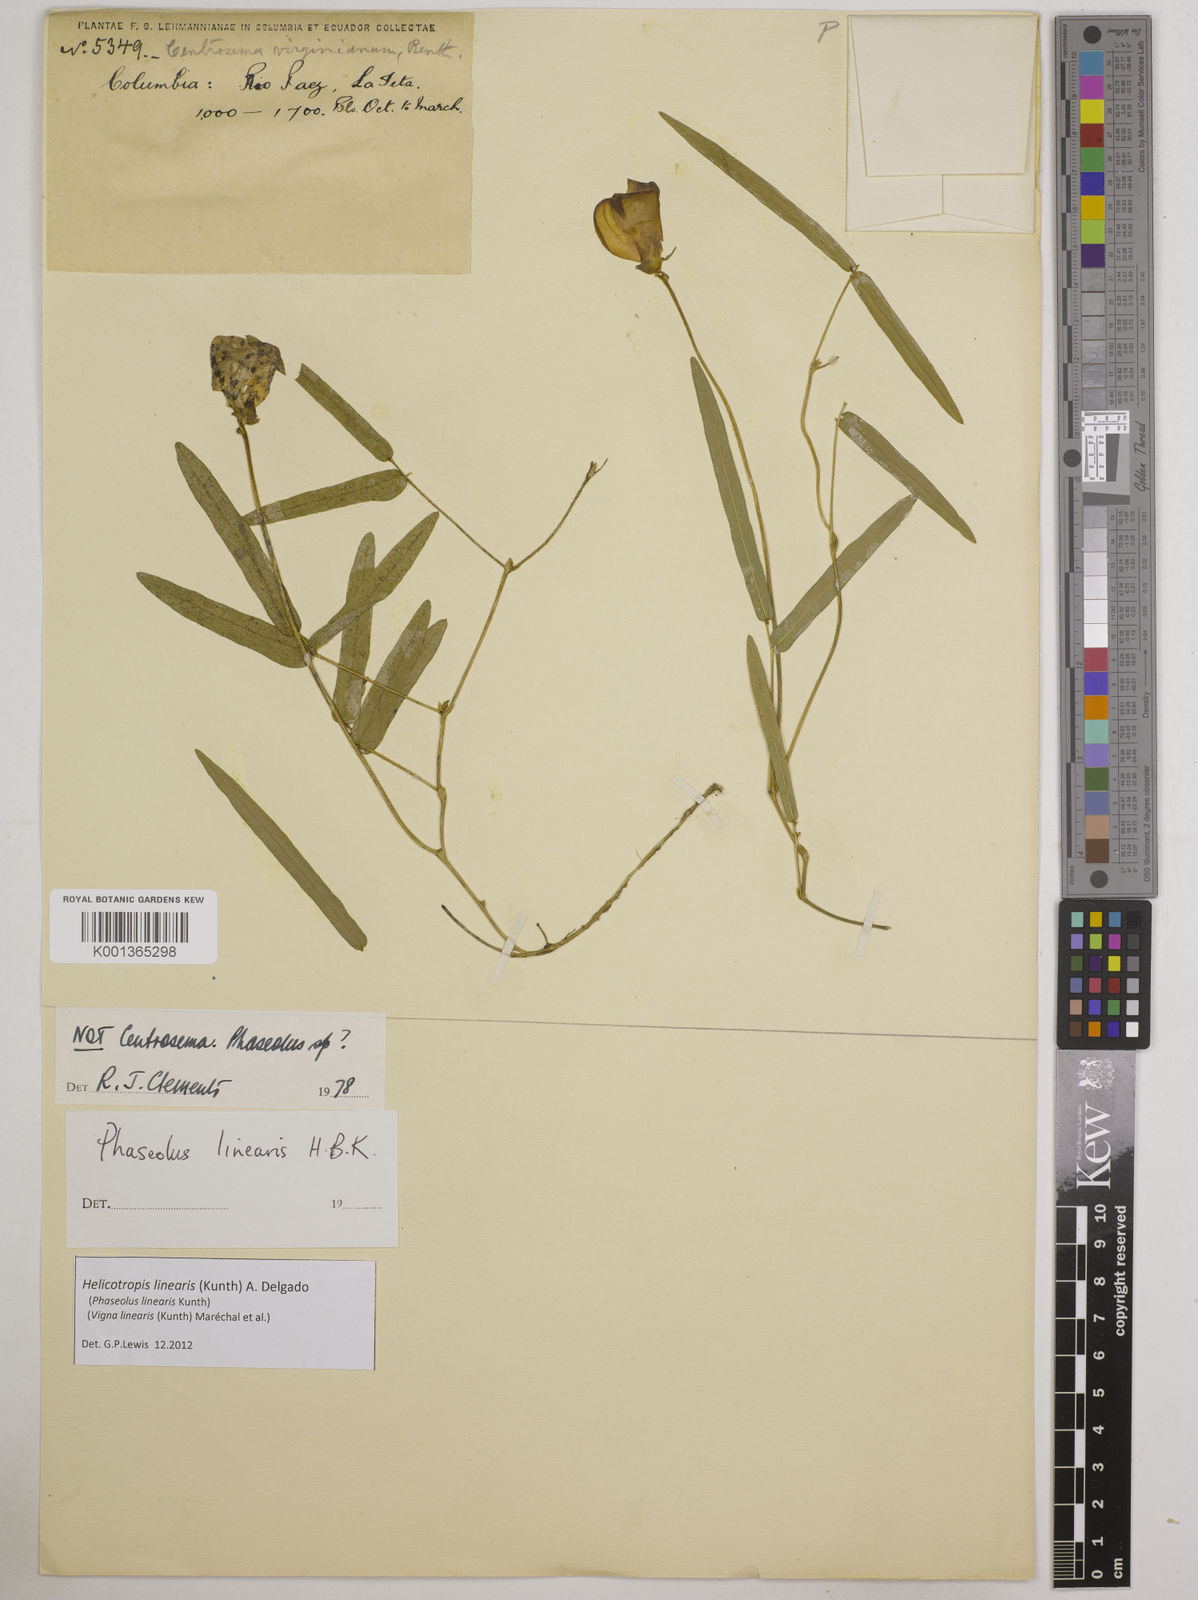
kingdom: Plantae
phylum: Tracheophyta
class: Magnoliopsida
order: Fabales
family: Fabaceae
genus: Helicotropis
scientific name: Helicotropis linearis
